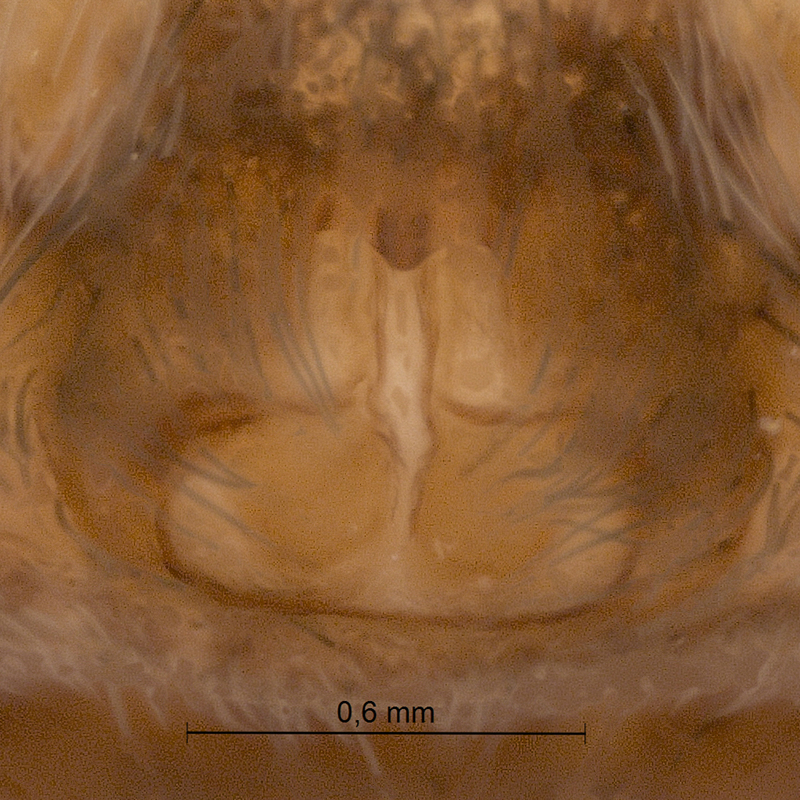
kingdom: Animalia
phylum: Arthropoda
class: Arachnida
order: Araneae
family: Lycosidae
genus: Pardosa
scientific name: Pardosa lugubris
